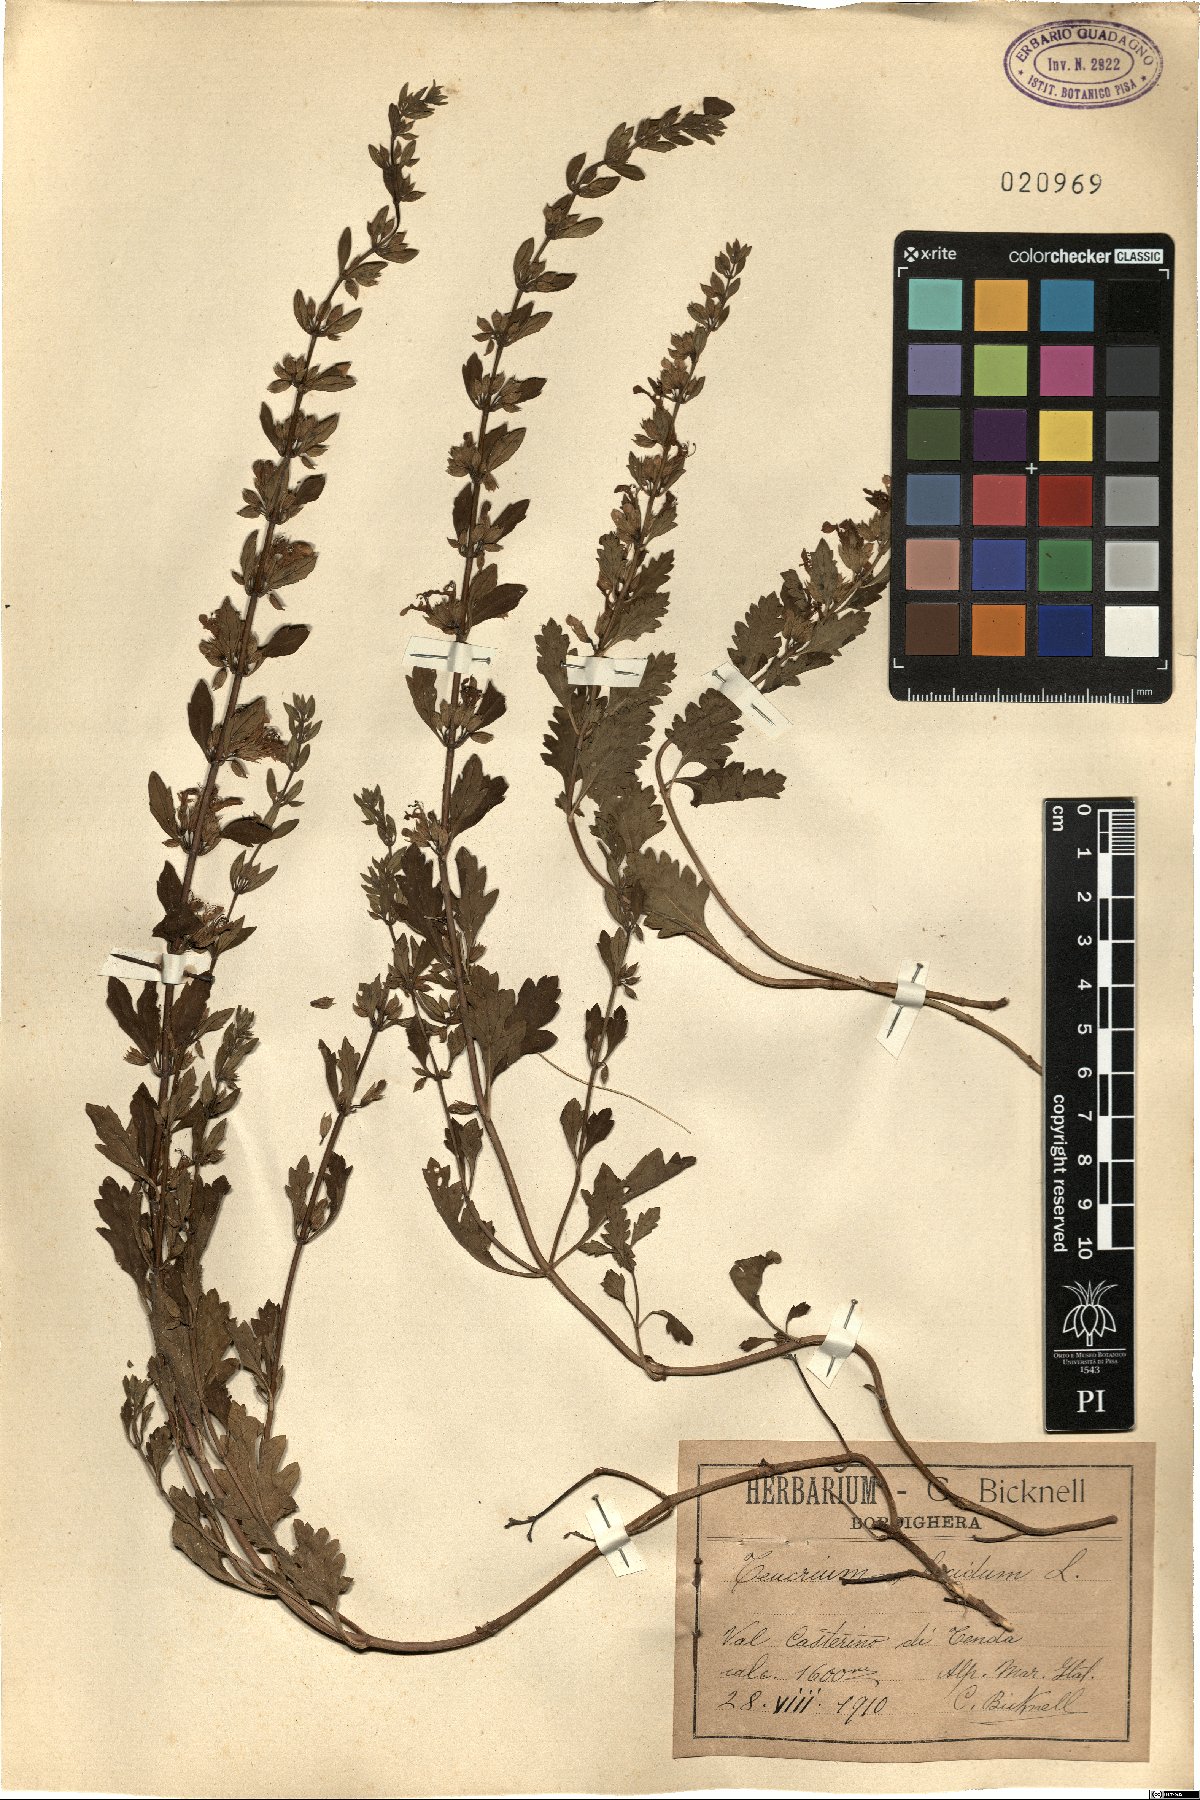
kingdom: Plantae
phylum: Tracheophyta
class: Magnoliopsida
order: Lamiales
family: Lamiaceae
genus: Teucrium
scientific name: Teucrium lucidum
